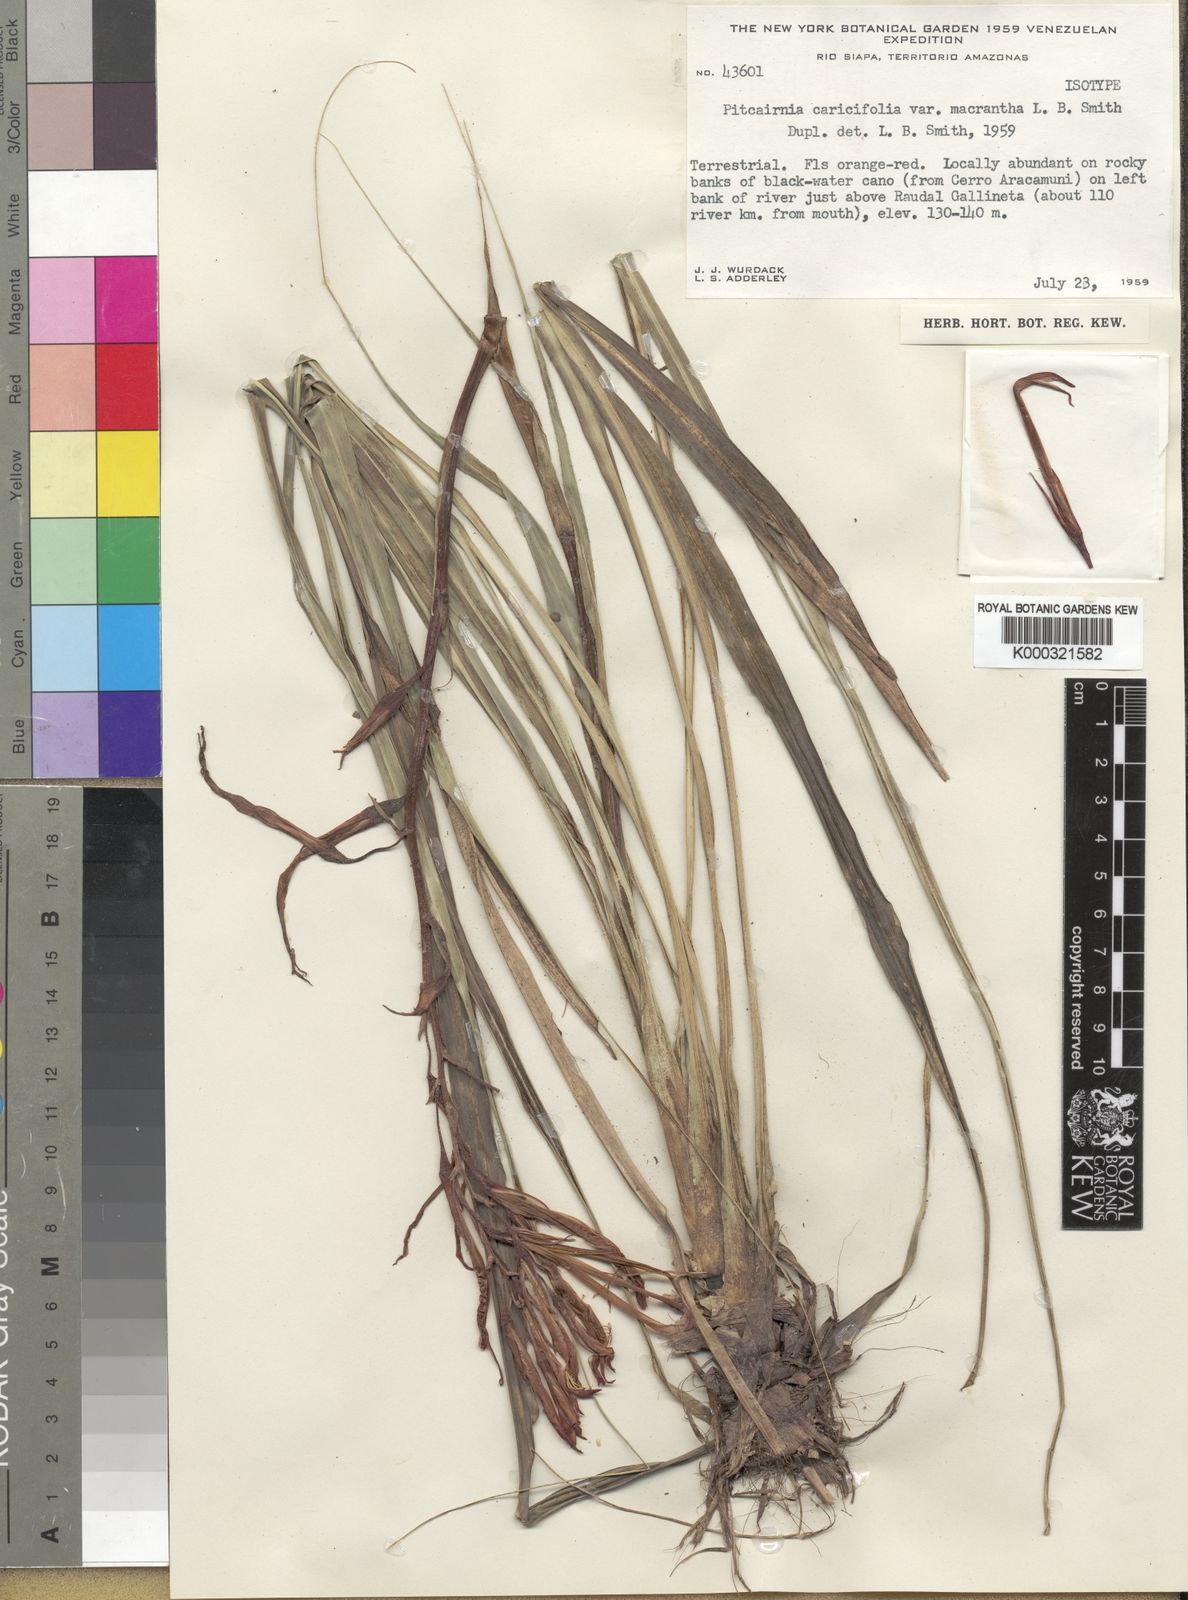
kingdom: Plantae
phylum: Tracheophyta
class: Liliopsida
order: Poales
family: Bromeliaceae
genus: Pitcairnia
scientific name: Pitcairnia caricifolia
